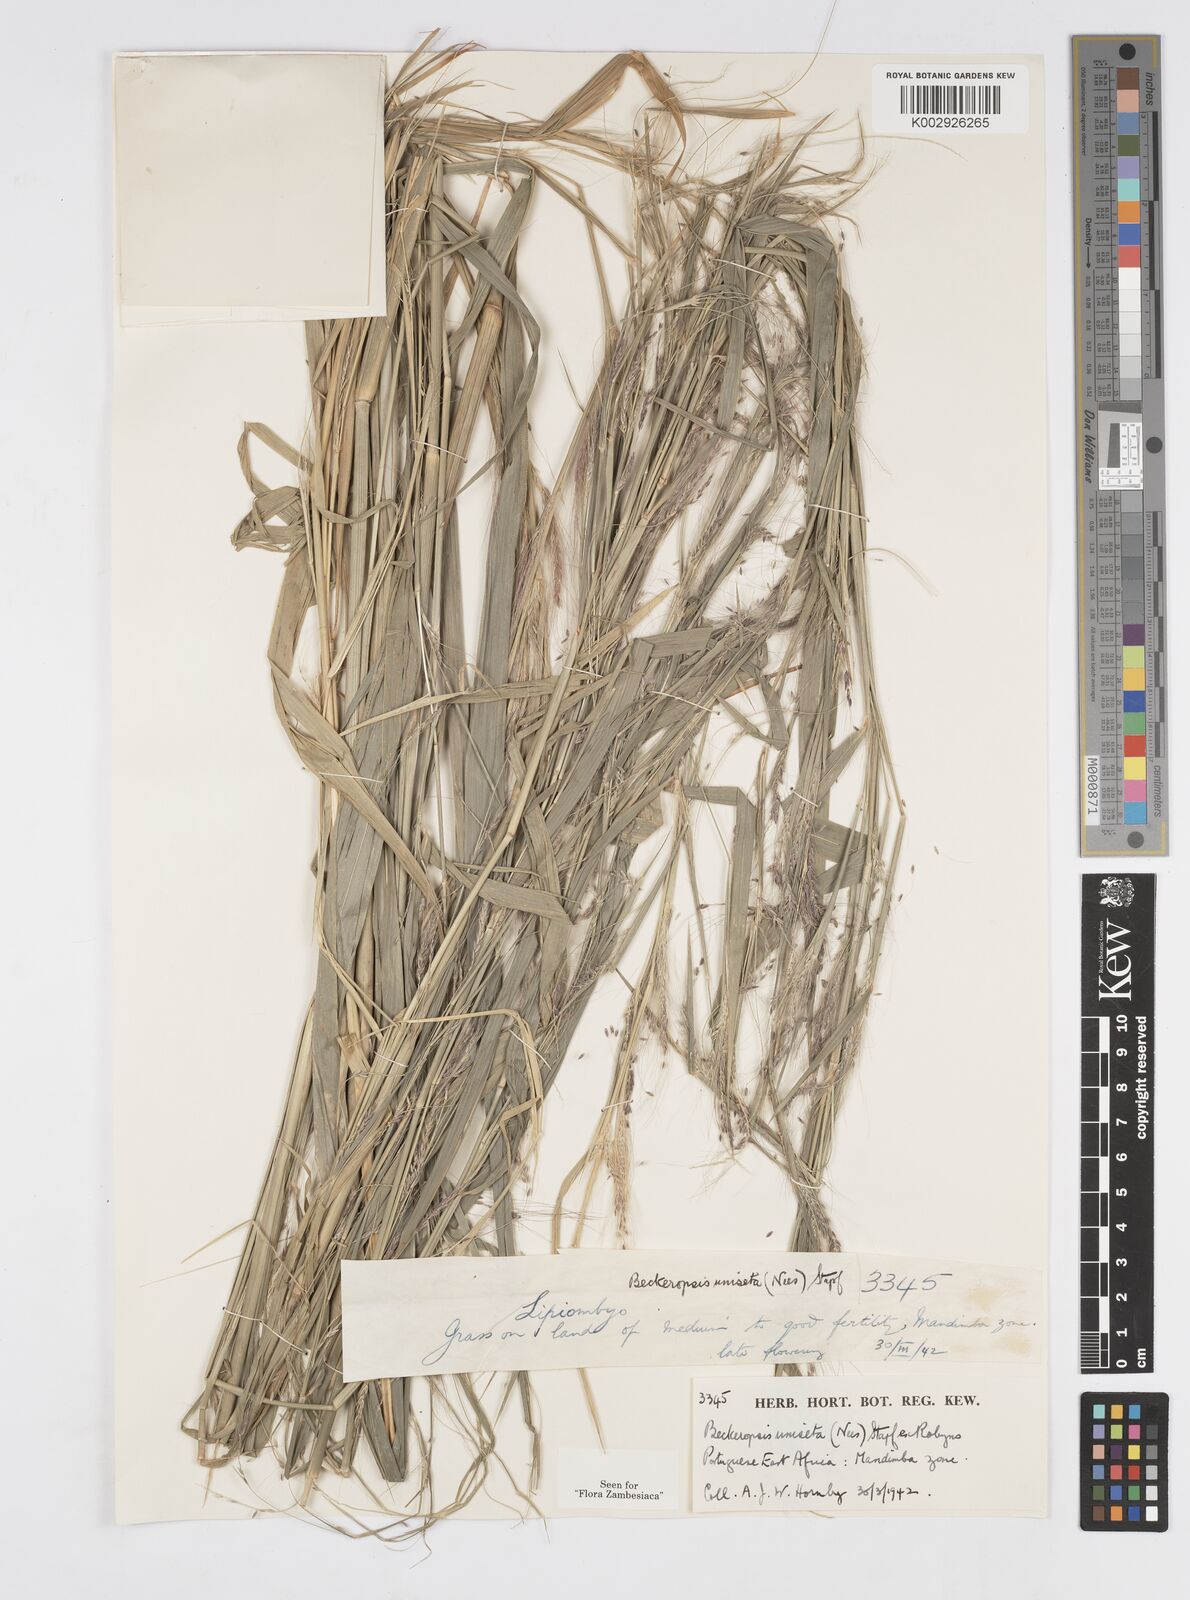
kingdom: Plantae
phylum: Tracheophyta
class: Liliopsida
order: Poales
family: Poaceae
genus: Cenchrus
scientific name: Cenchrus unisetus
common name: Natal grass
